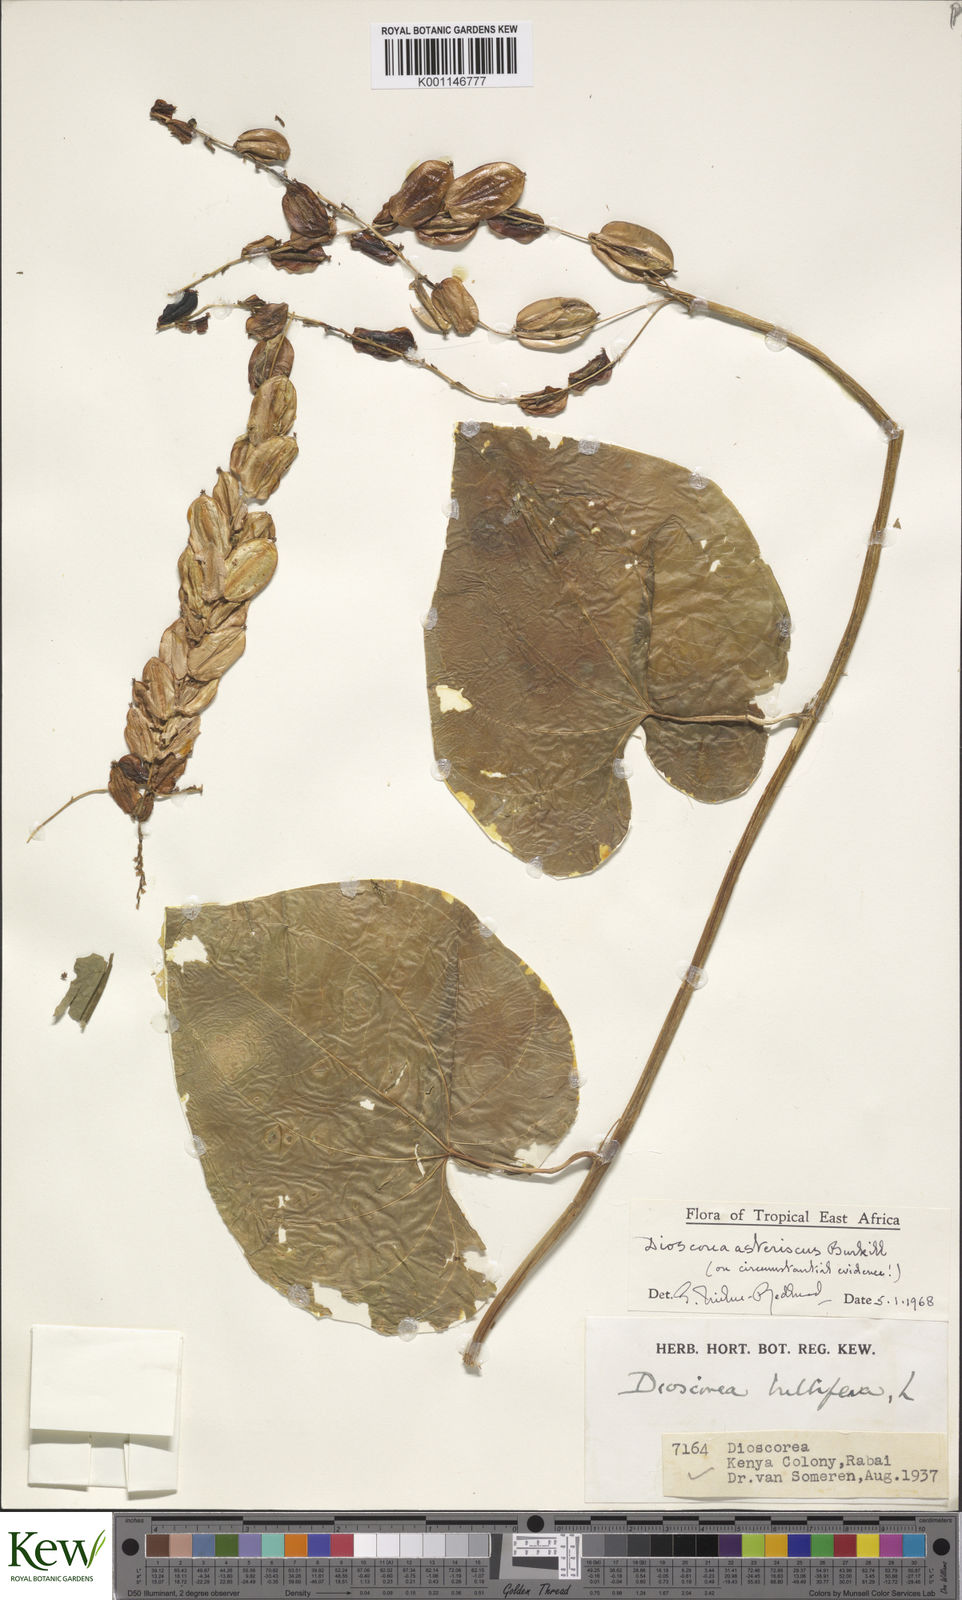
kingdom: Plantae
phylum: Tracheophyta
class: Liliopsida
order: Dioscoreales
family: Dioscoreaceae
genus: Dioscorea
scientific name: Dioscorea asteriscus
